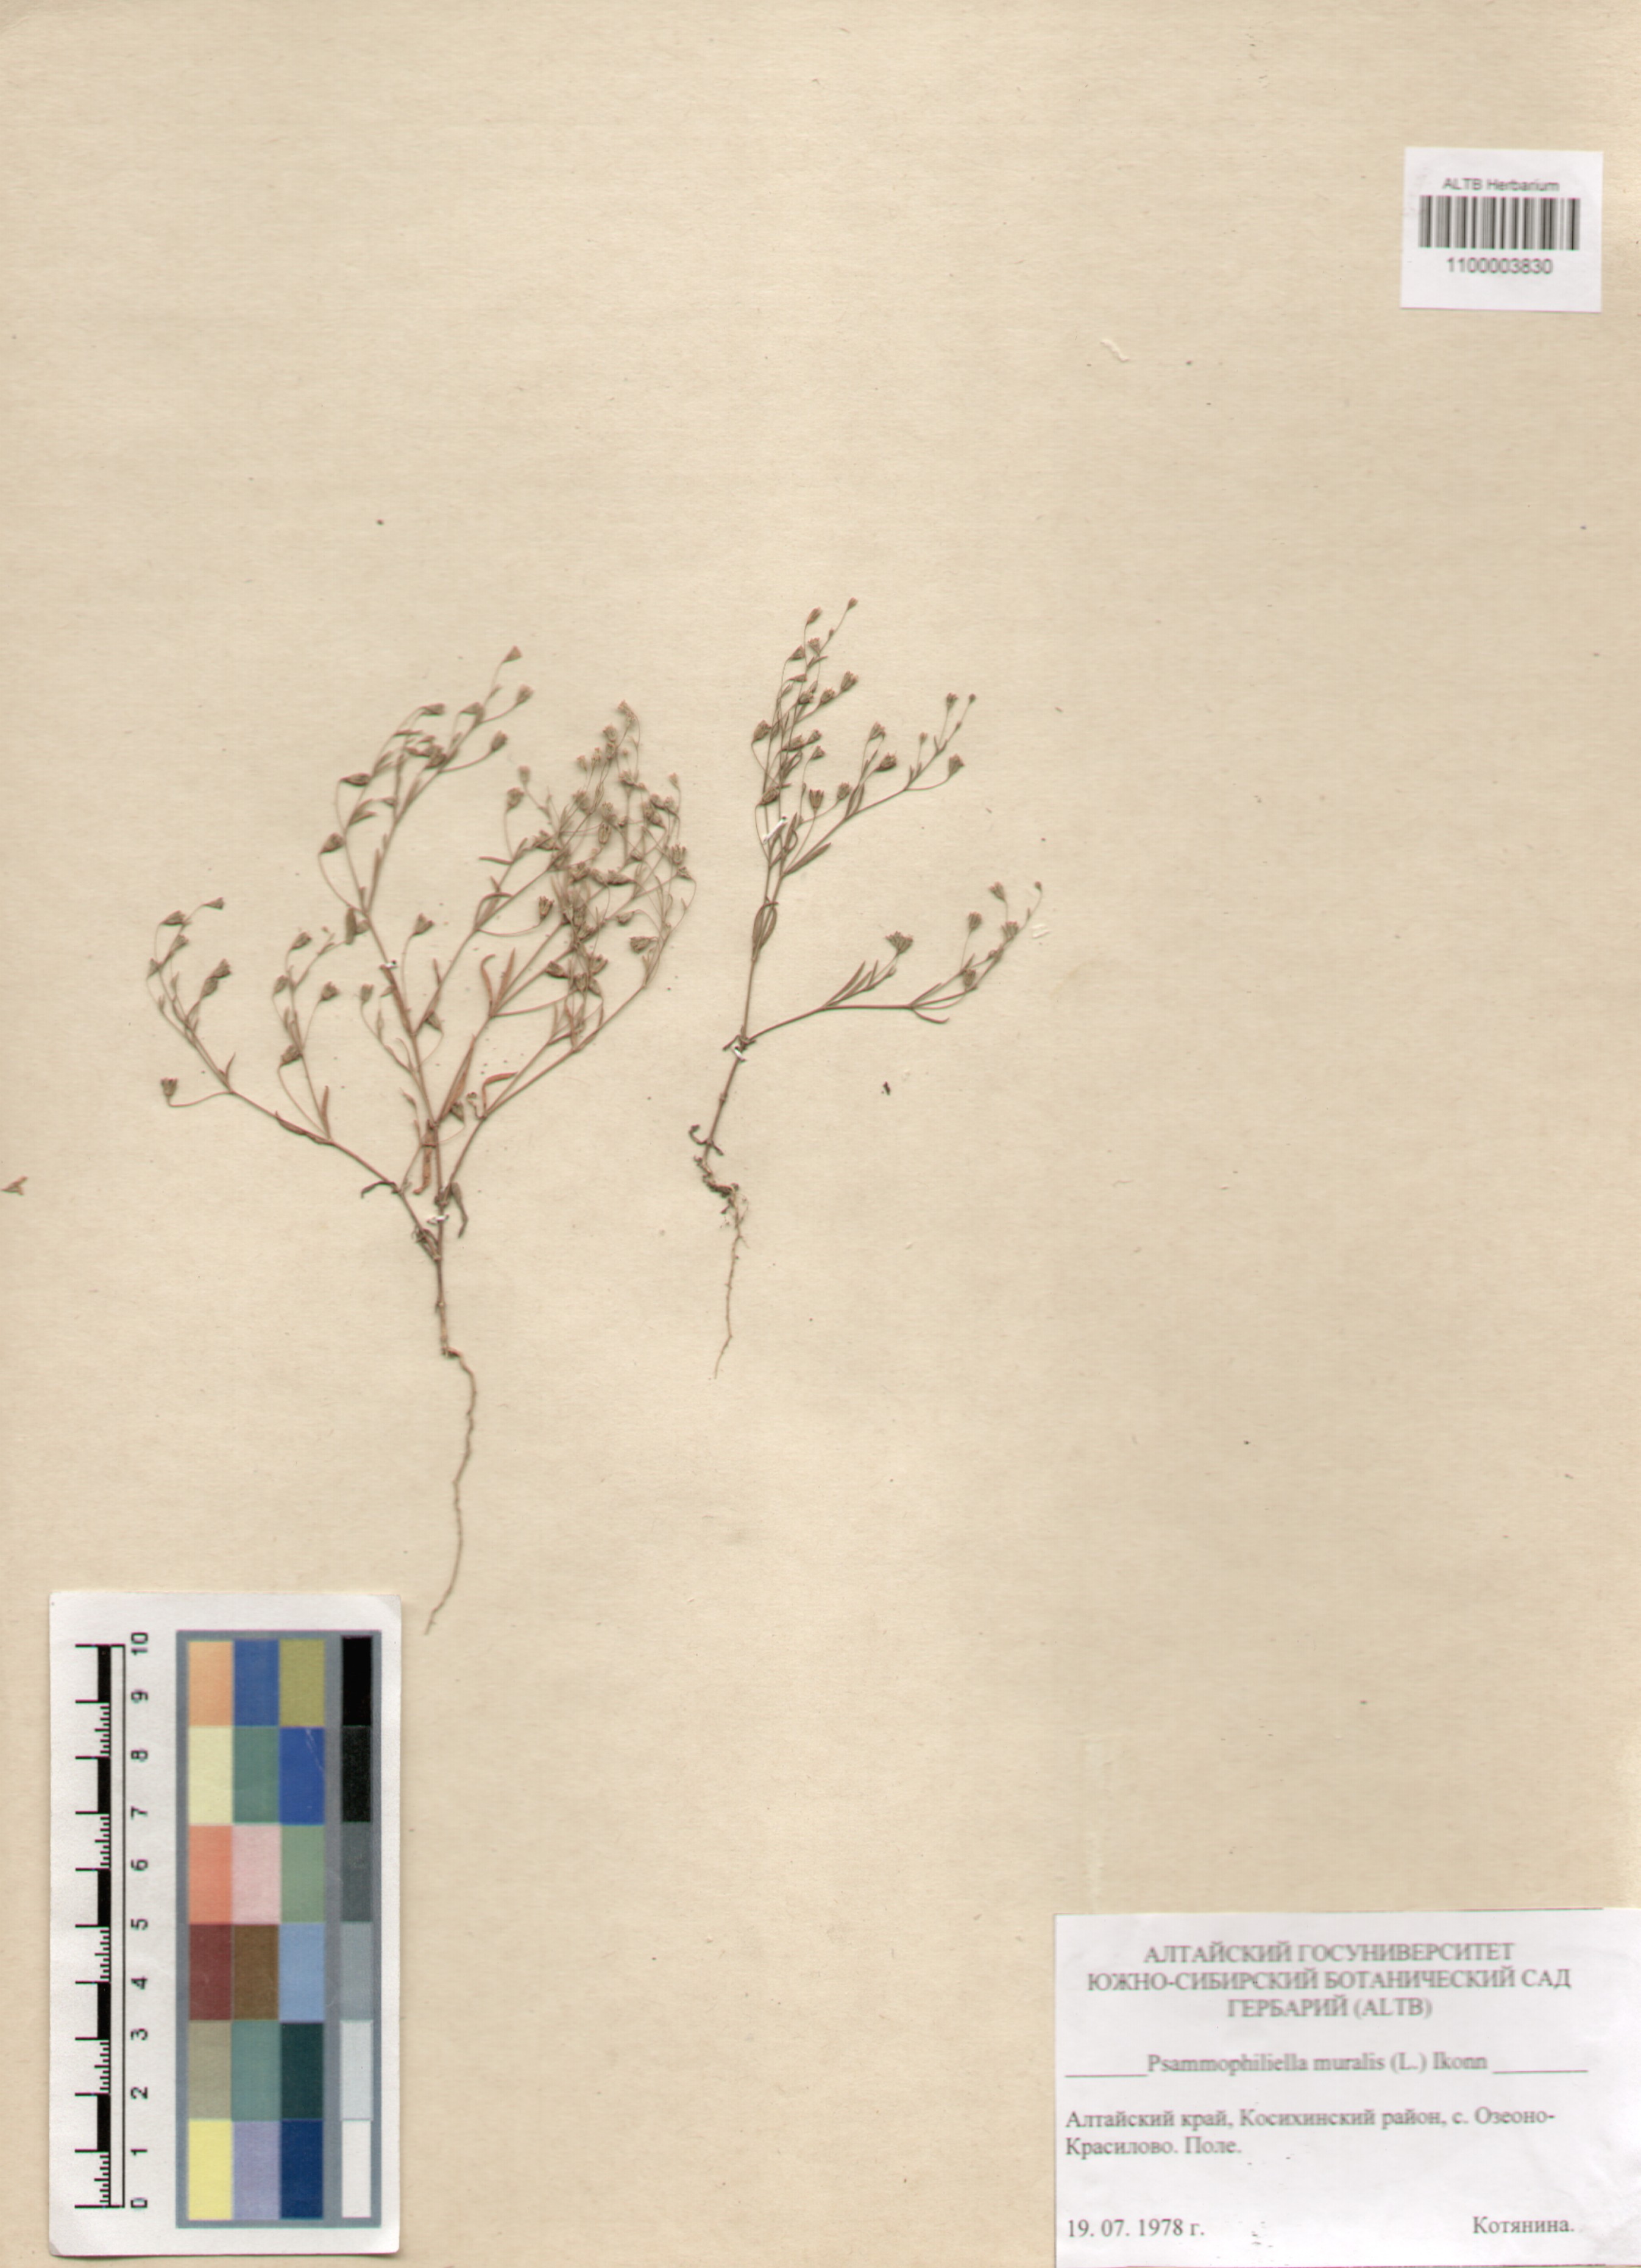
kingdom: Plantae
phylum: Tracheophyta
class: Magnoliopsida
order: Caryophyllales
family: Caryophyllaceae
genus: Psammophiliella
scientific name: Psammophiliella muralis
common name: Cushion baby's-breath
